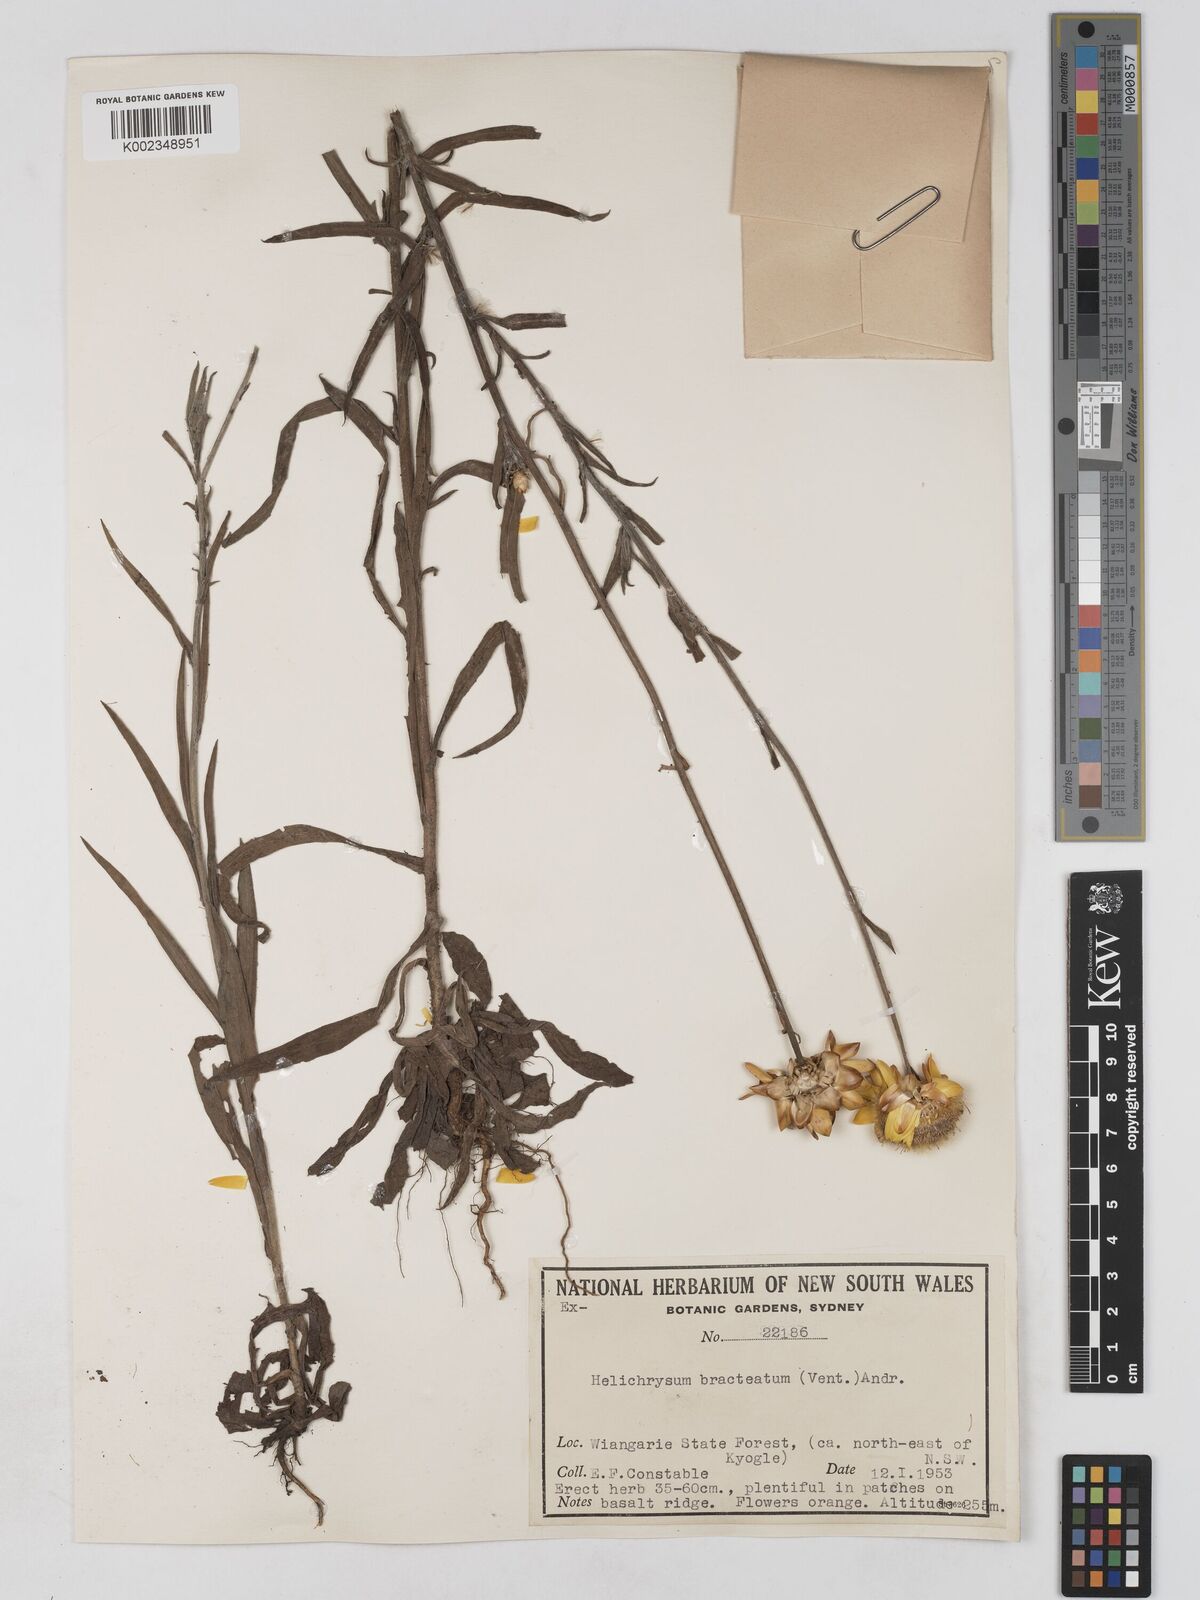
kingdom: Plantae
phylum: Tracheophyta
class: Magnoliopsida
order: Asterales
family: Asteraceae
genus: Xerochrysum
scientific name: Xerochrysum bracteatum
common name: Bracted strawflower
